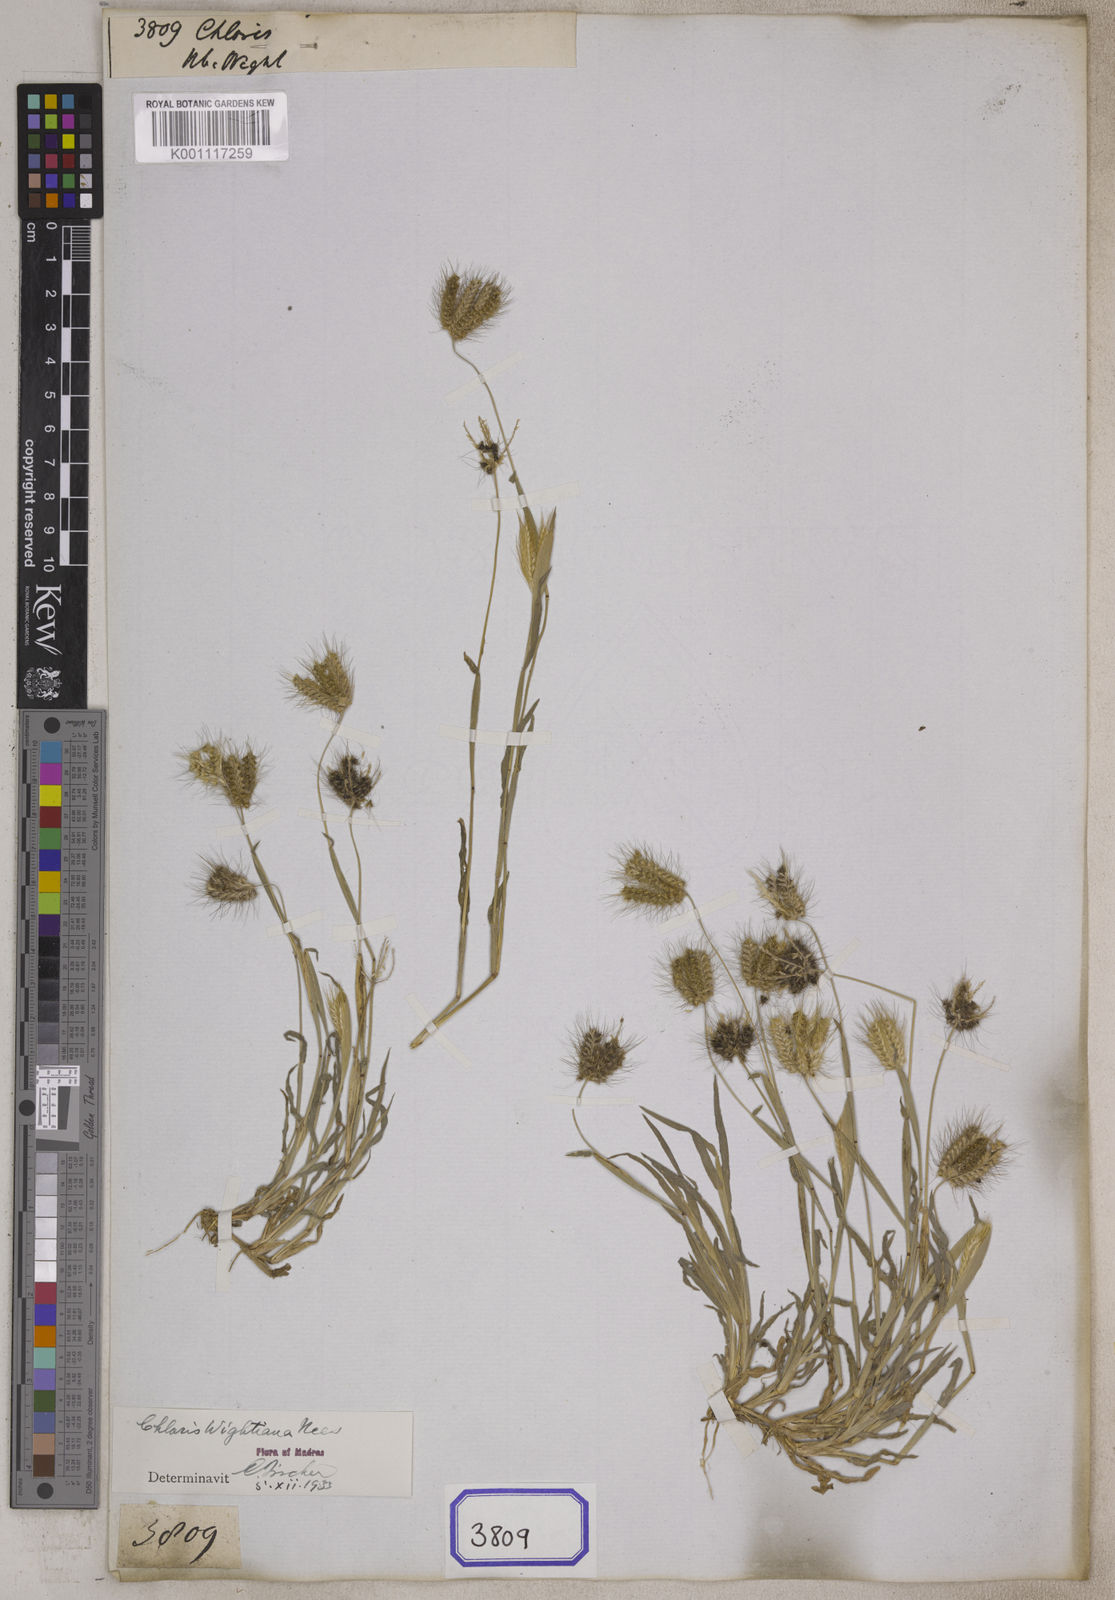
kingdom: Plantae
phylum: Tracheophyta
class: Liliopsida
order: Poales
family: Poaceae
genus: Chloris
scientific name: Chloris
